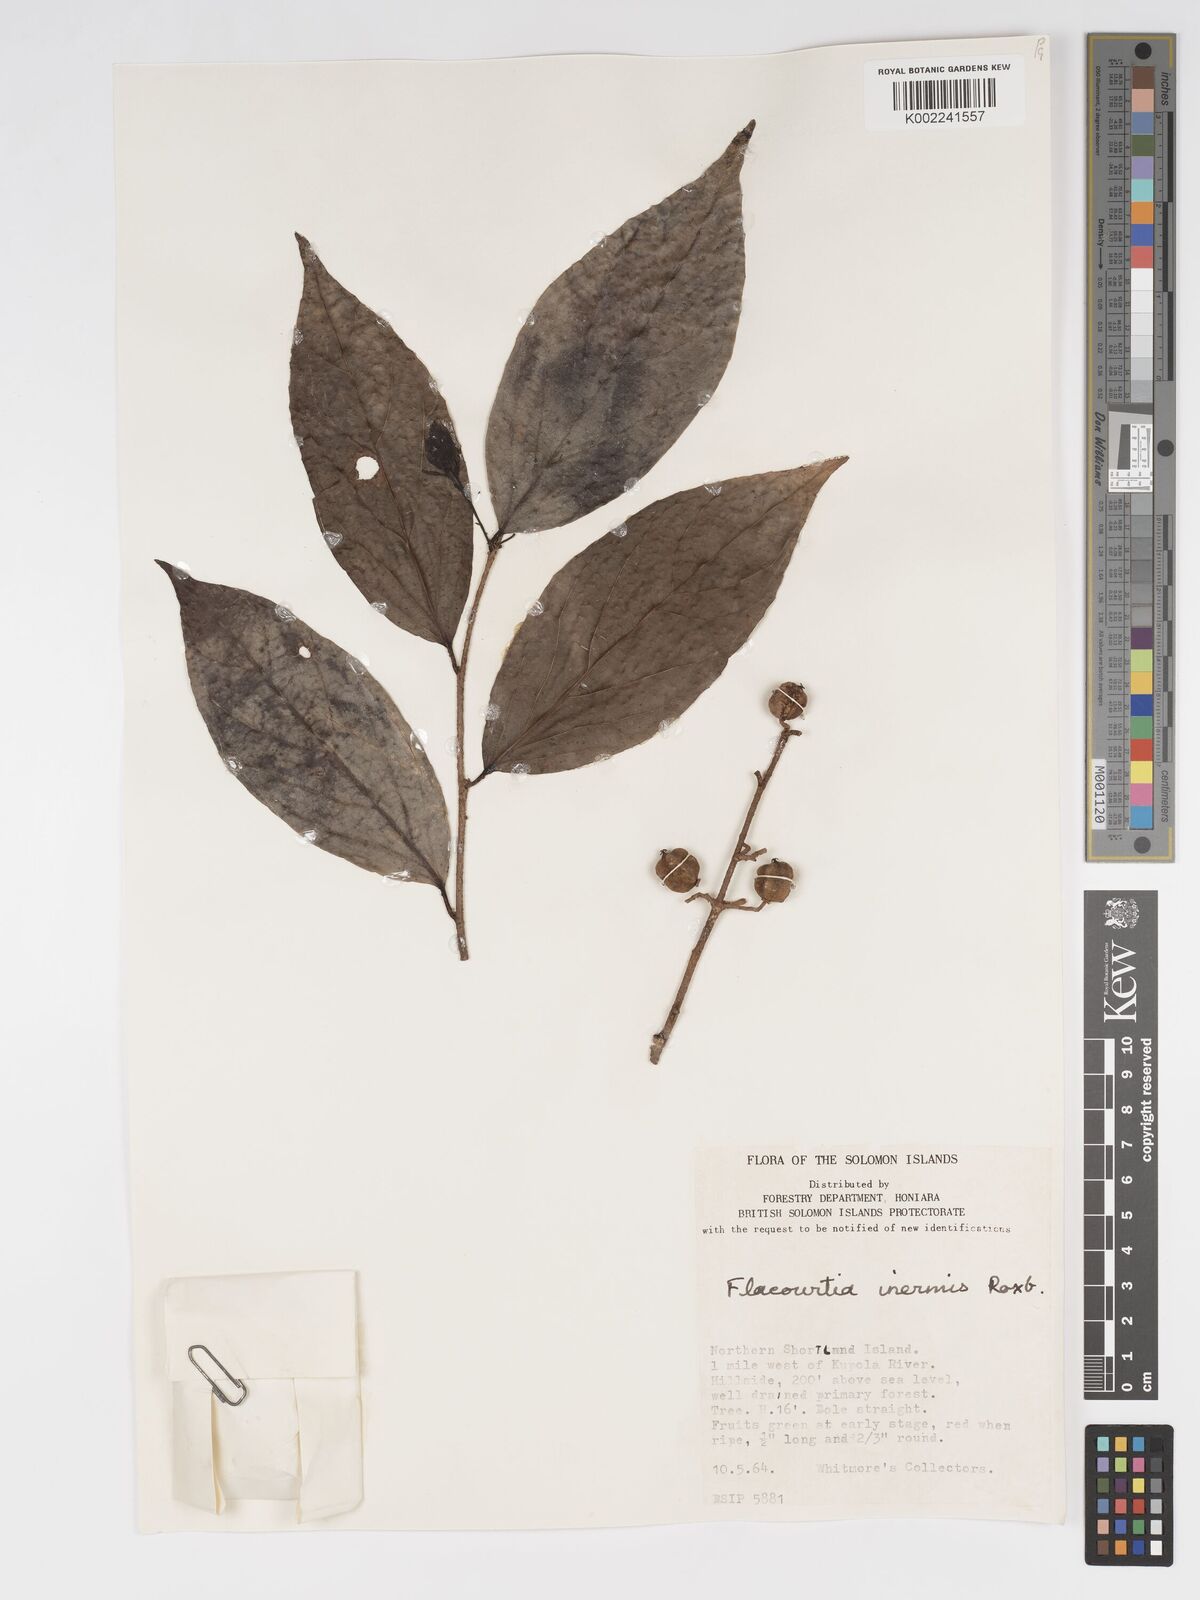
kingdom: Plantae
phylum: Tracheophyta
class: Magnoliopsida
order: Malpighiales
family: Salicaceae
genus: Flacourtia
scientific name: Flacourtia inermis
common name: Plum-of-martinique
